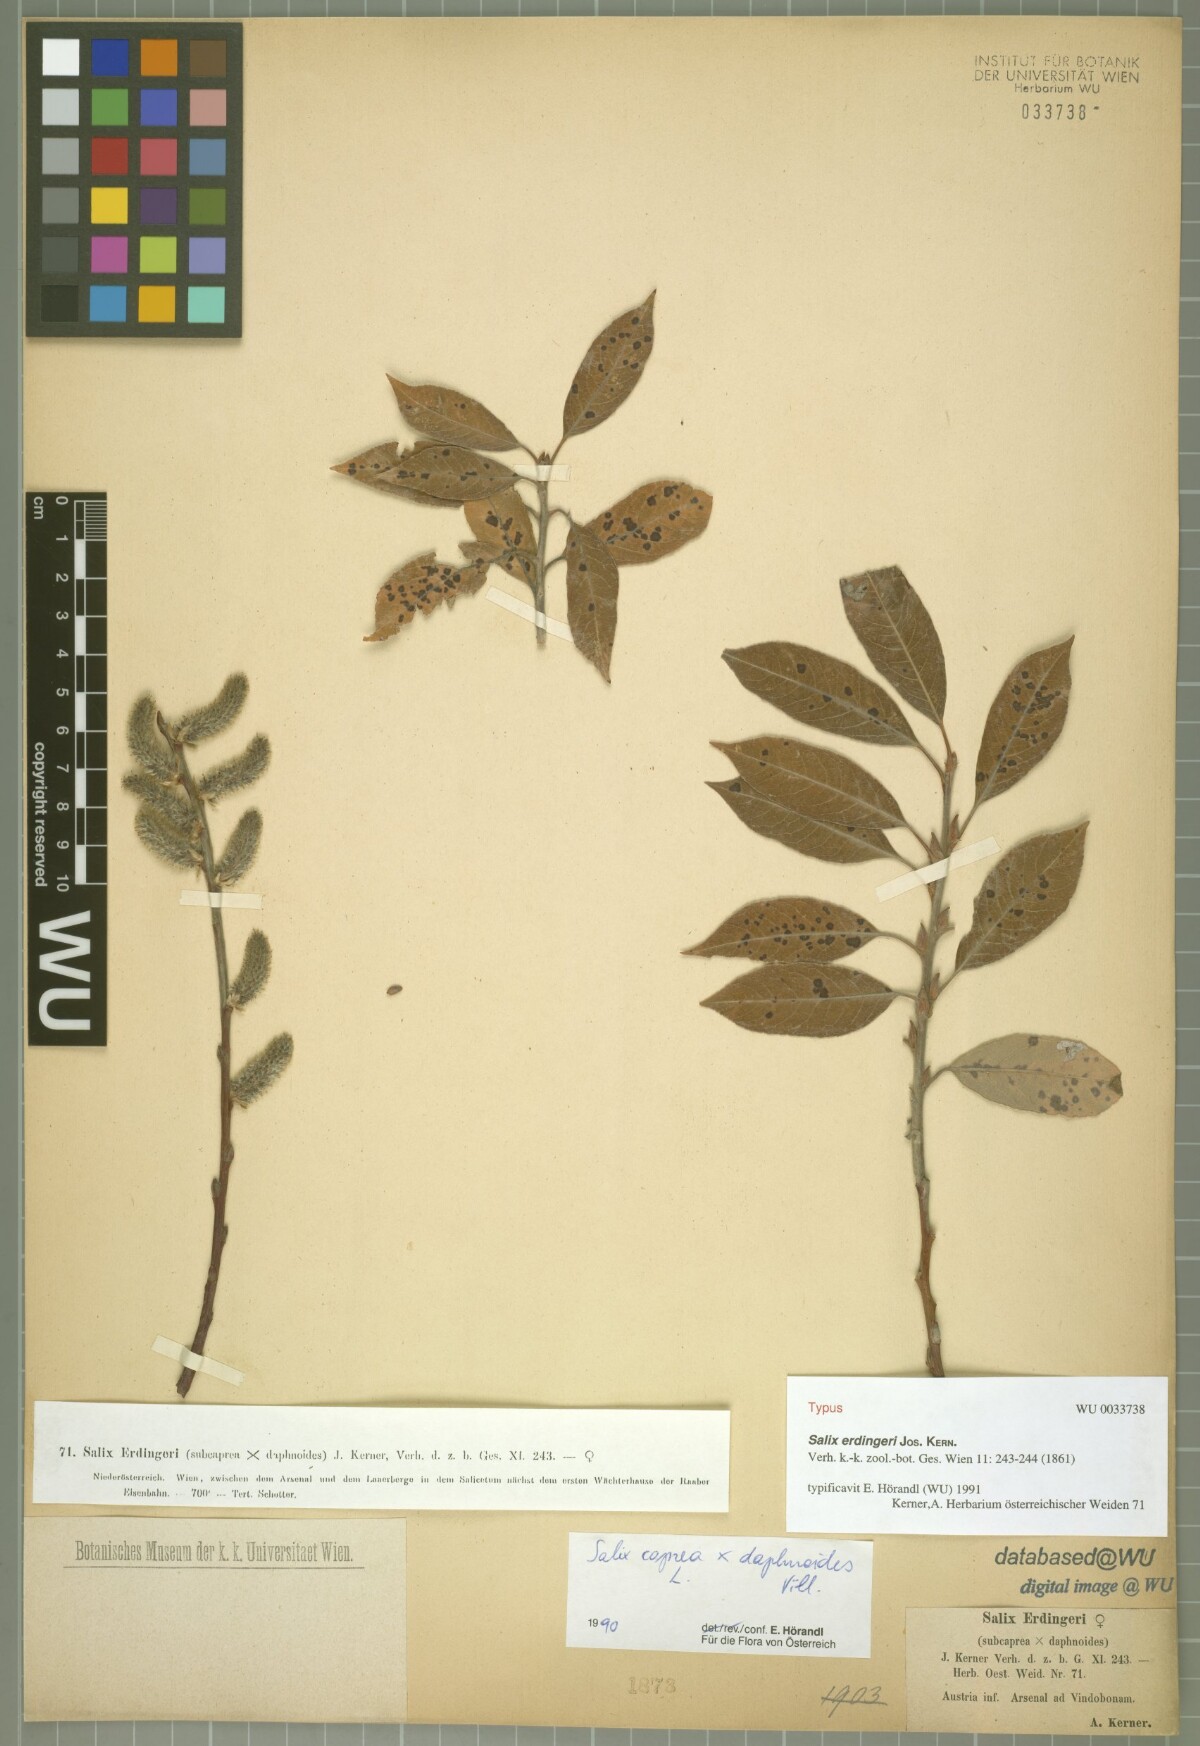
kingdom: Plantae
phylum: Tracheophyta
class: Magnoliopsida
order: Malpighiales
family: Salicaceae
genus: Salix
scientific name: Salix erdingeri
